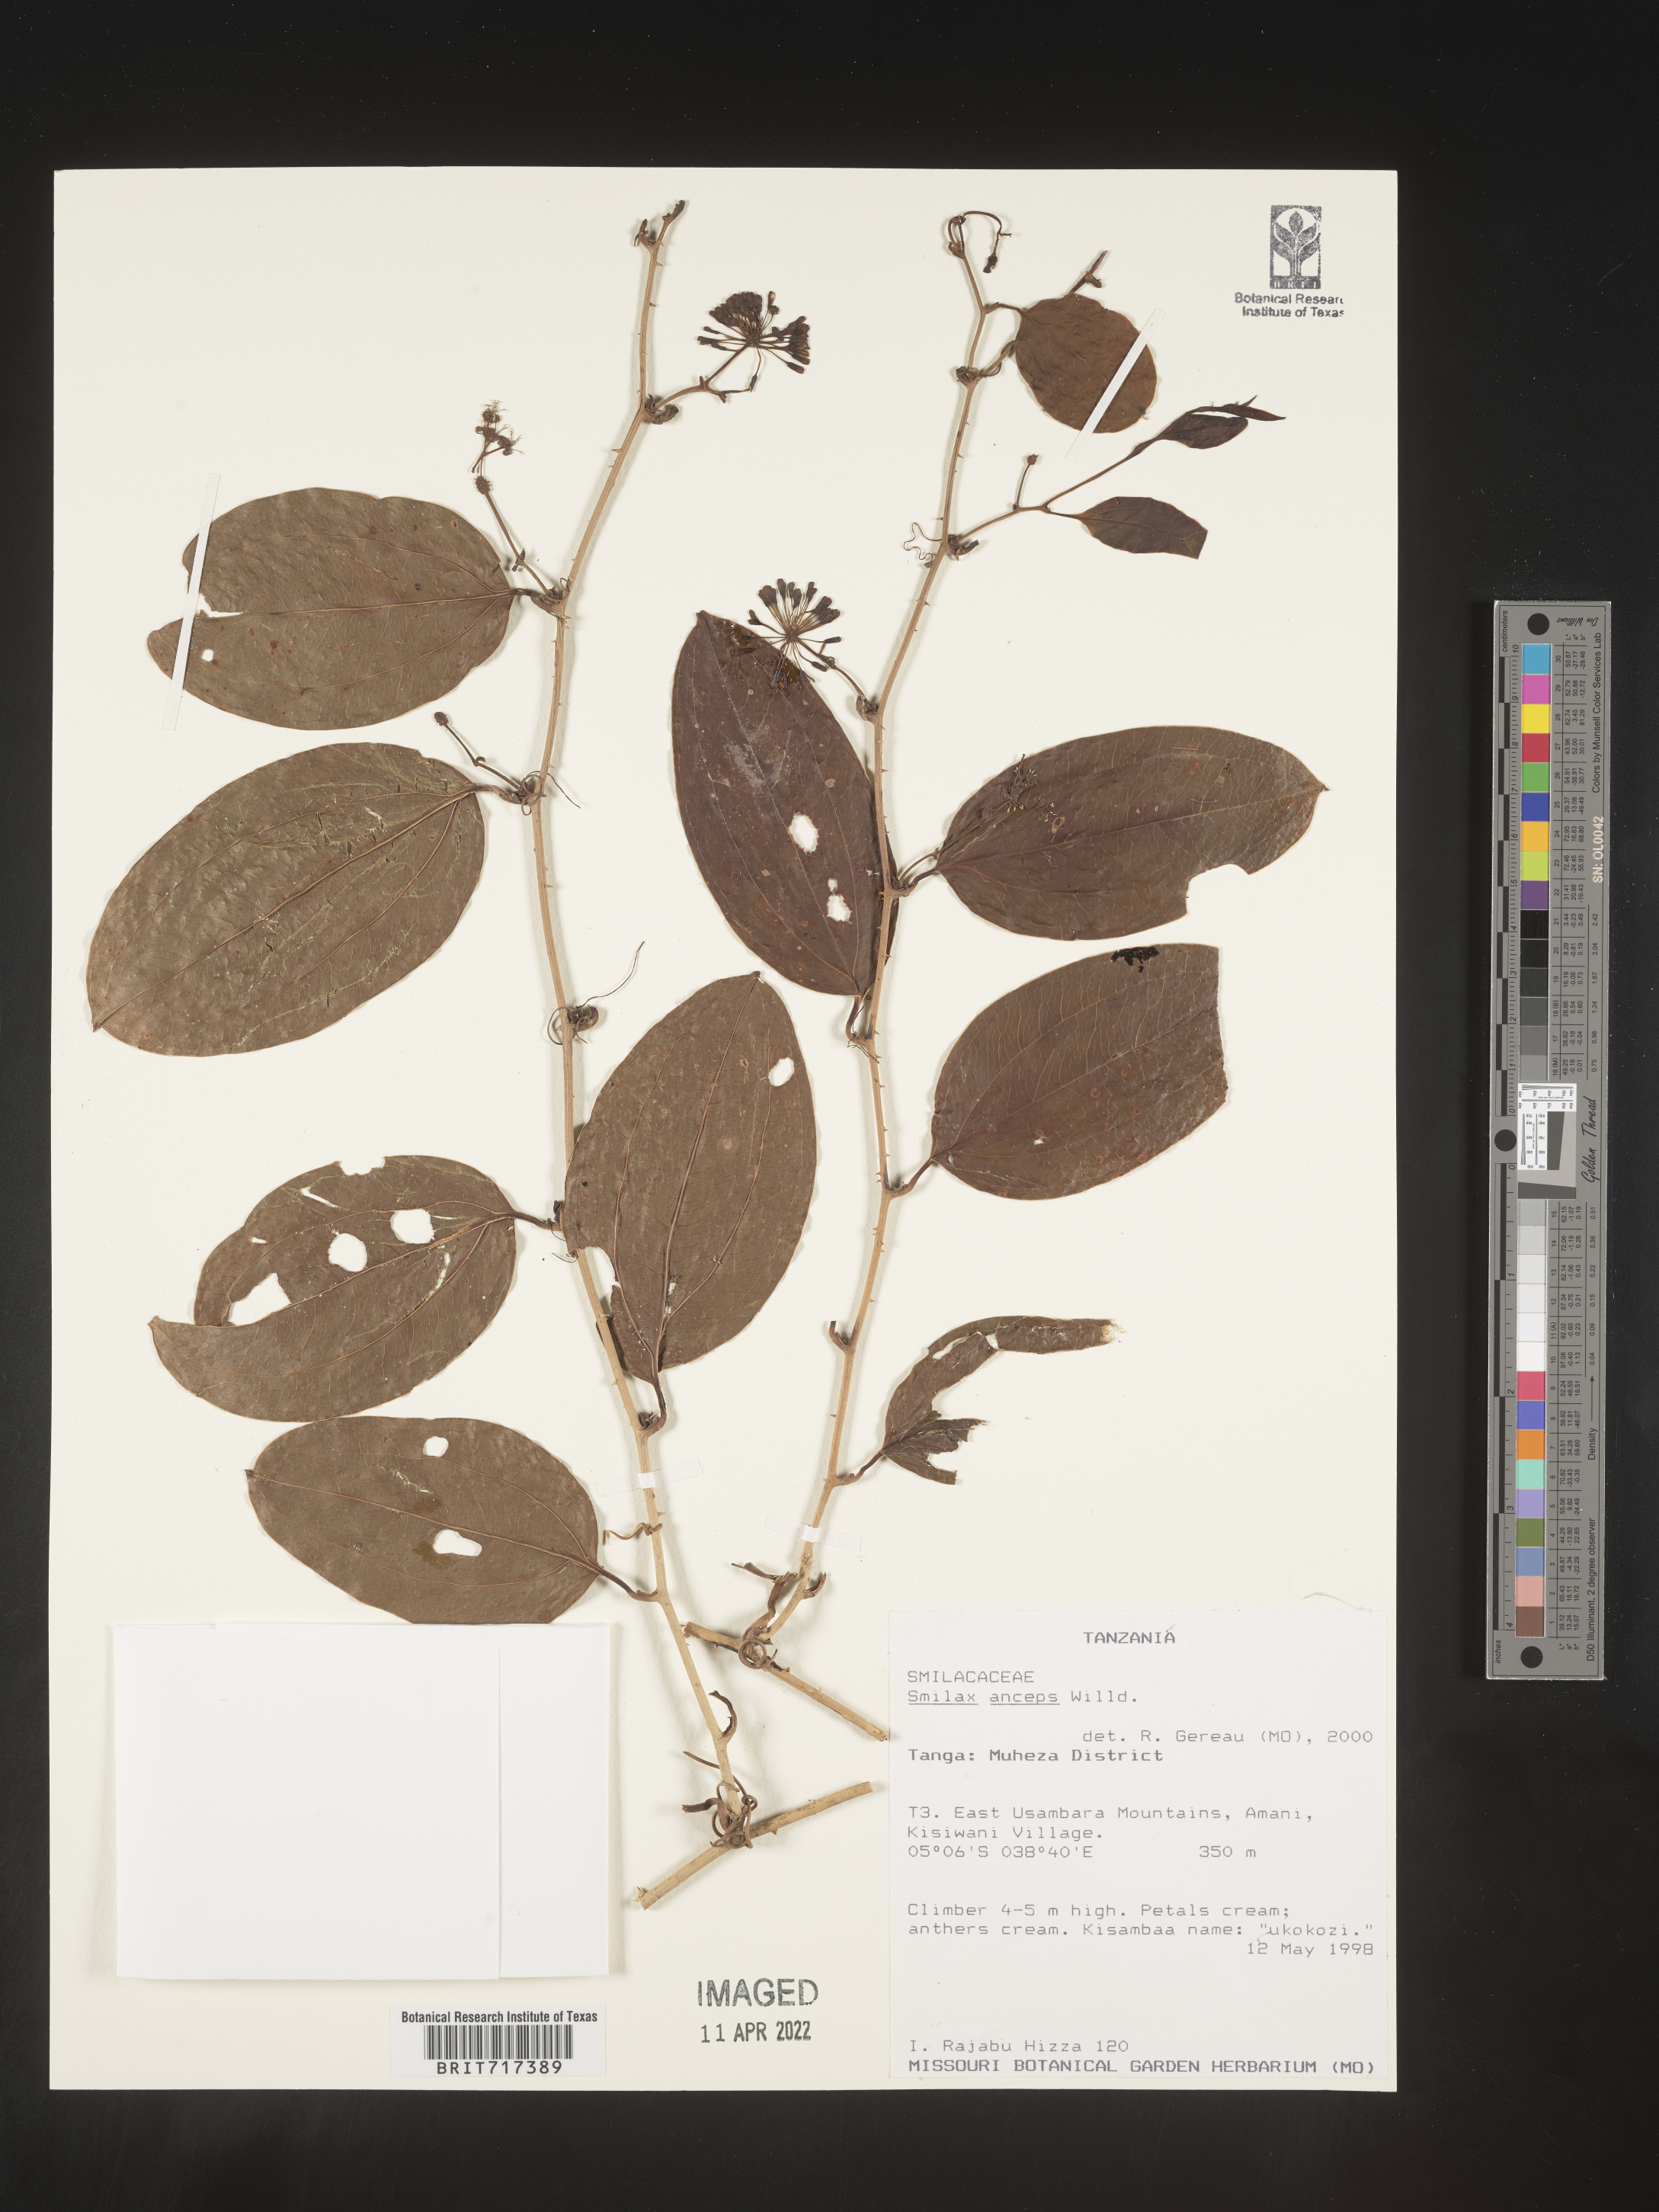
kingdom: Plantae
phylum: Tracheophyta
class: Liliopsida
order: Liliales
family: Smilacaceae
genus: Smilax
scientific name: Smilax
